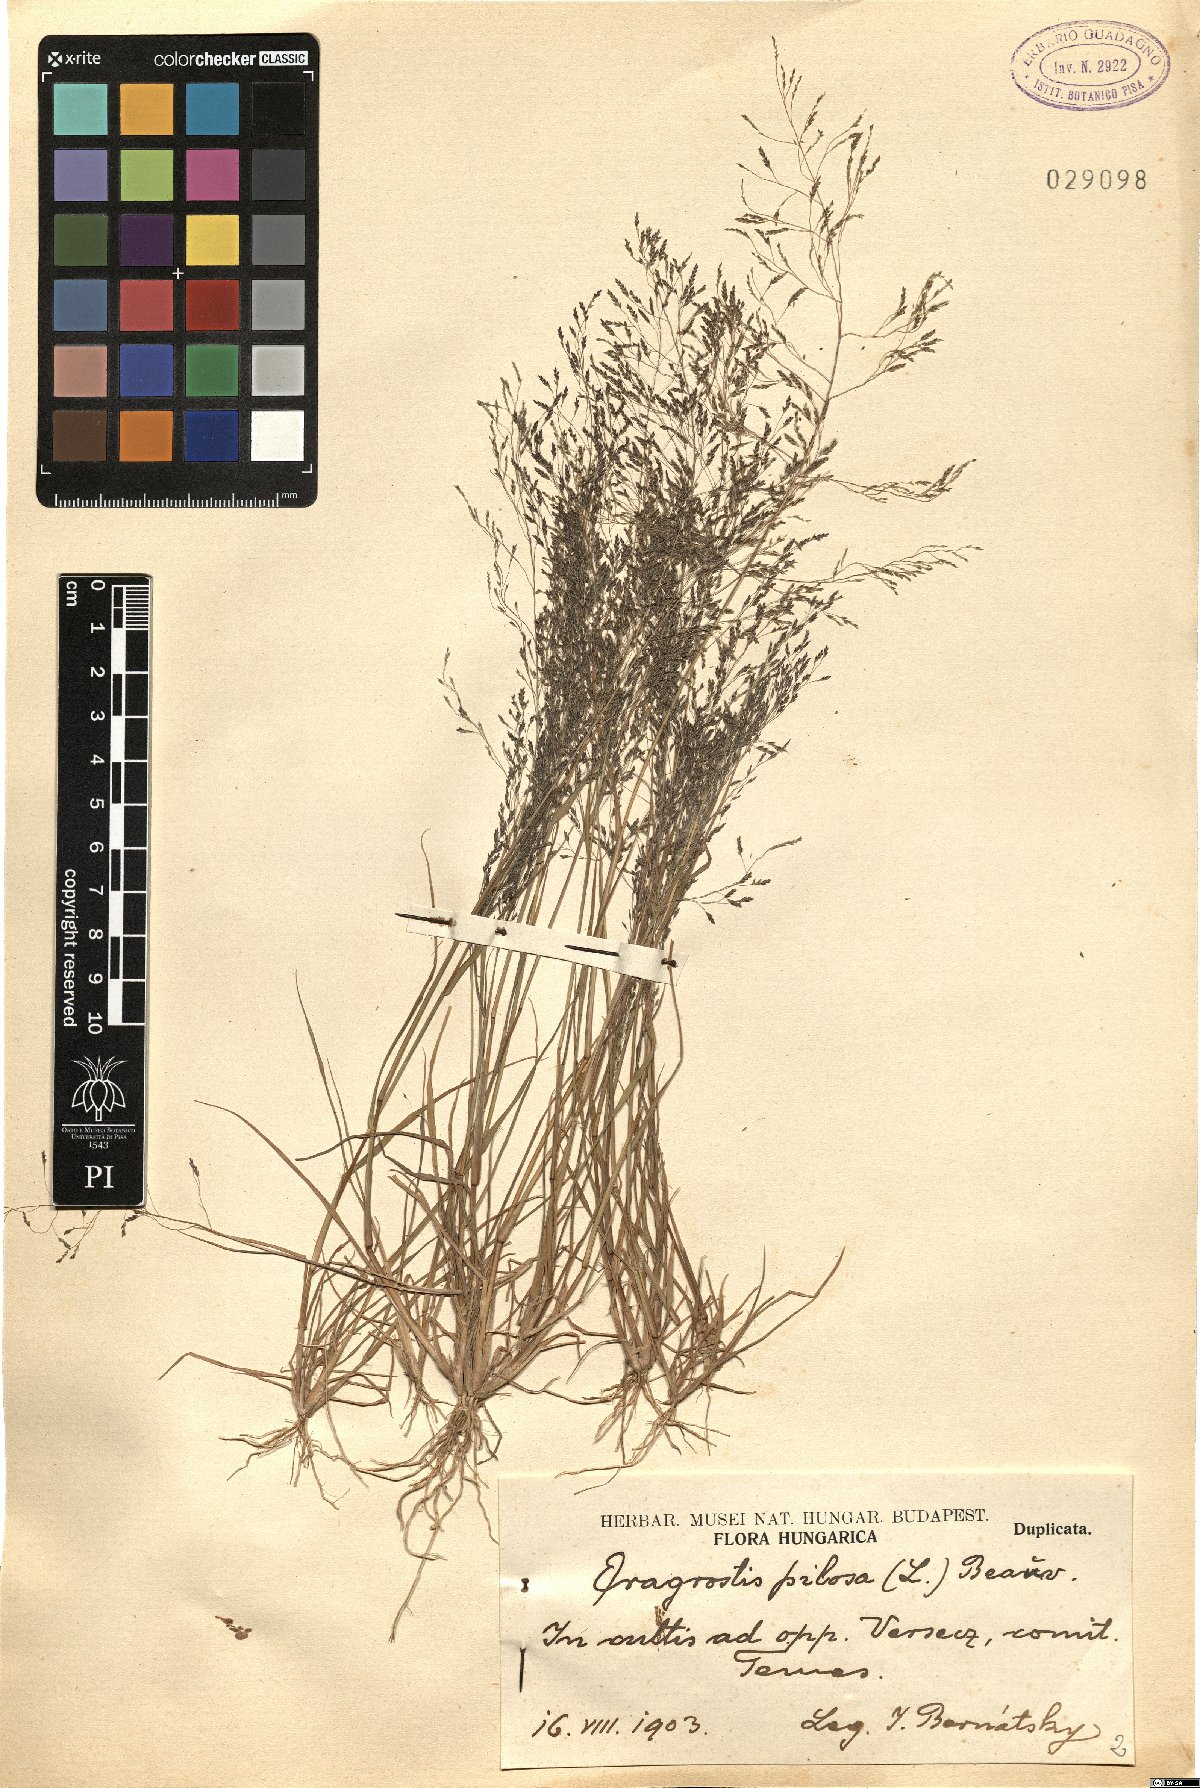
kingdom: Plantae
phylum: Tracheophyta
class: Liliopsida
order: Poales
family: Poaceae
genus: Eragrostis
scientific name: Eragrostis pilosa
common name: Indian lovegrass
